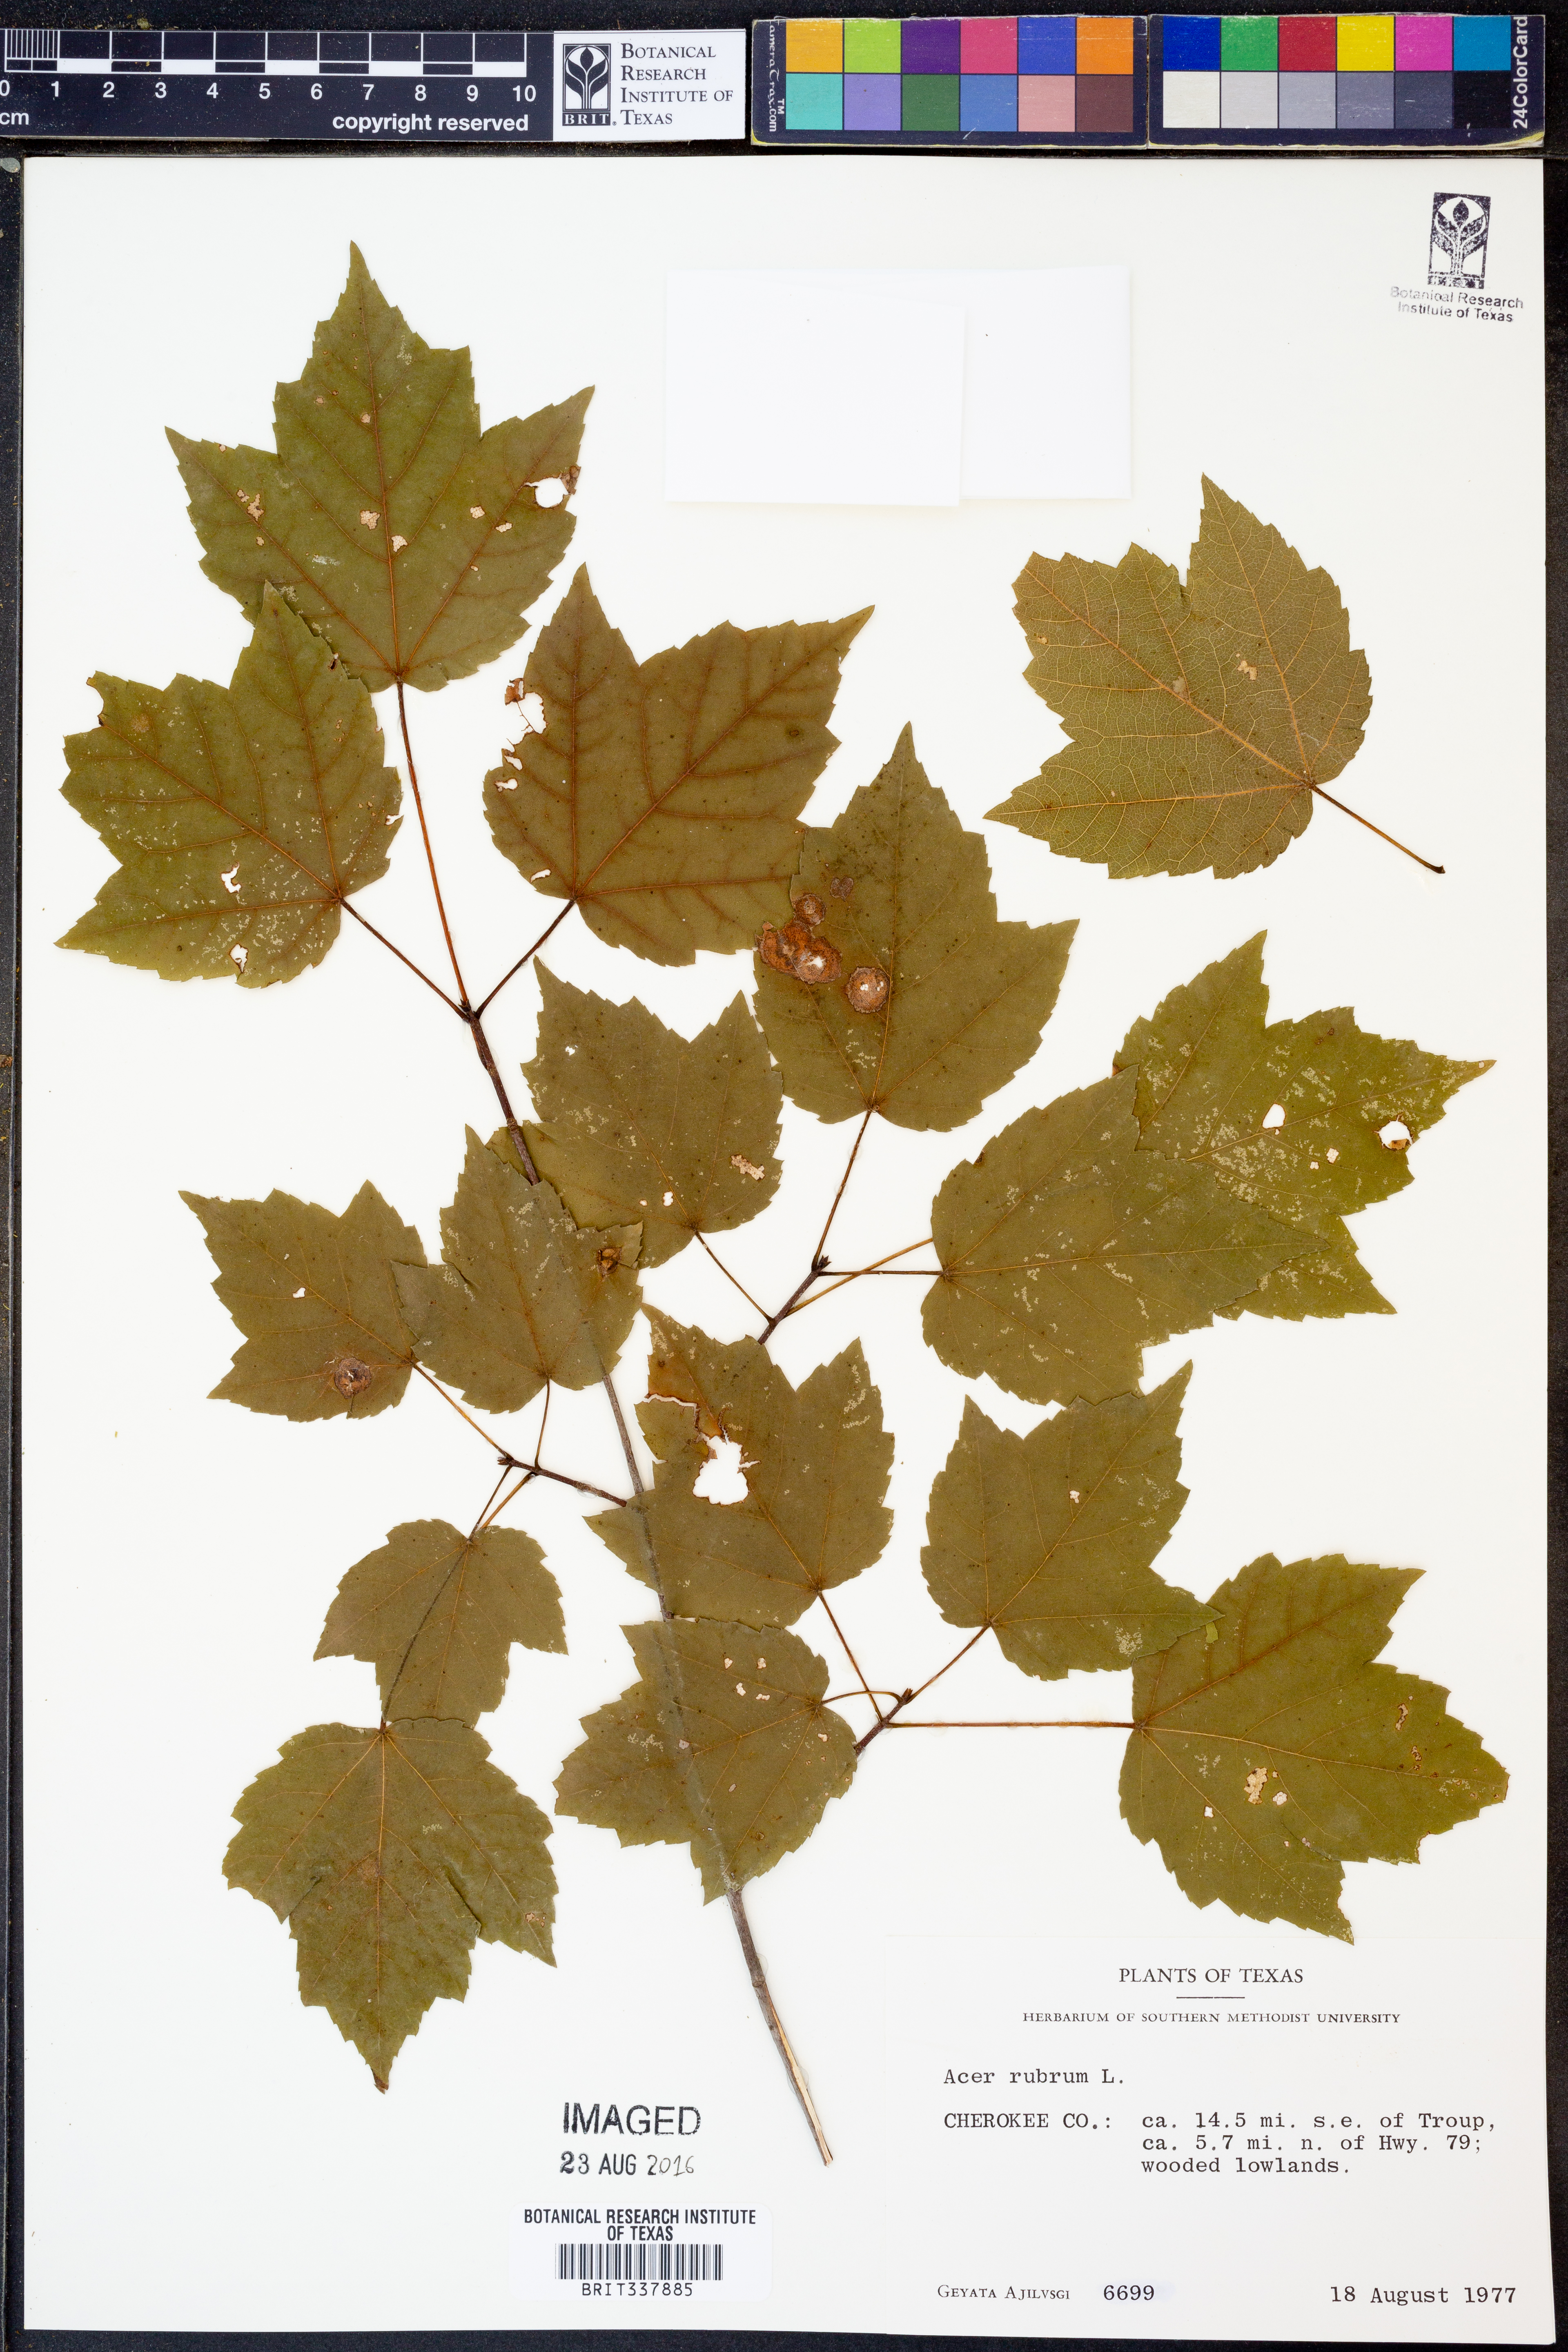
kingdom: Plantae
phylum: Tracheophyta
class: Magnoliopsida
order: Sapindales
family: Sapindaceae
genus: Acer
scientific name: Acer rubrum
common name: Red maple
